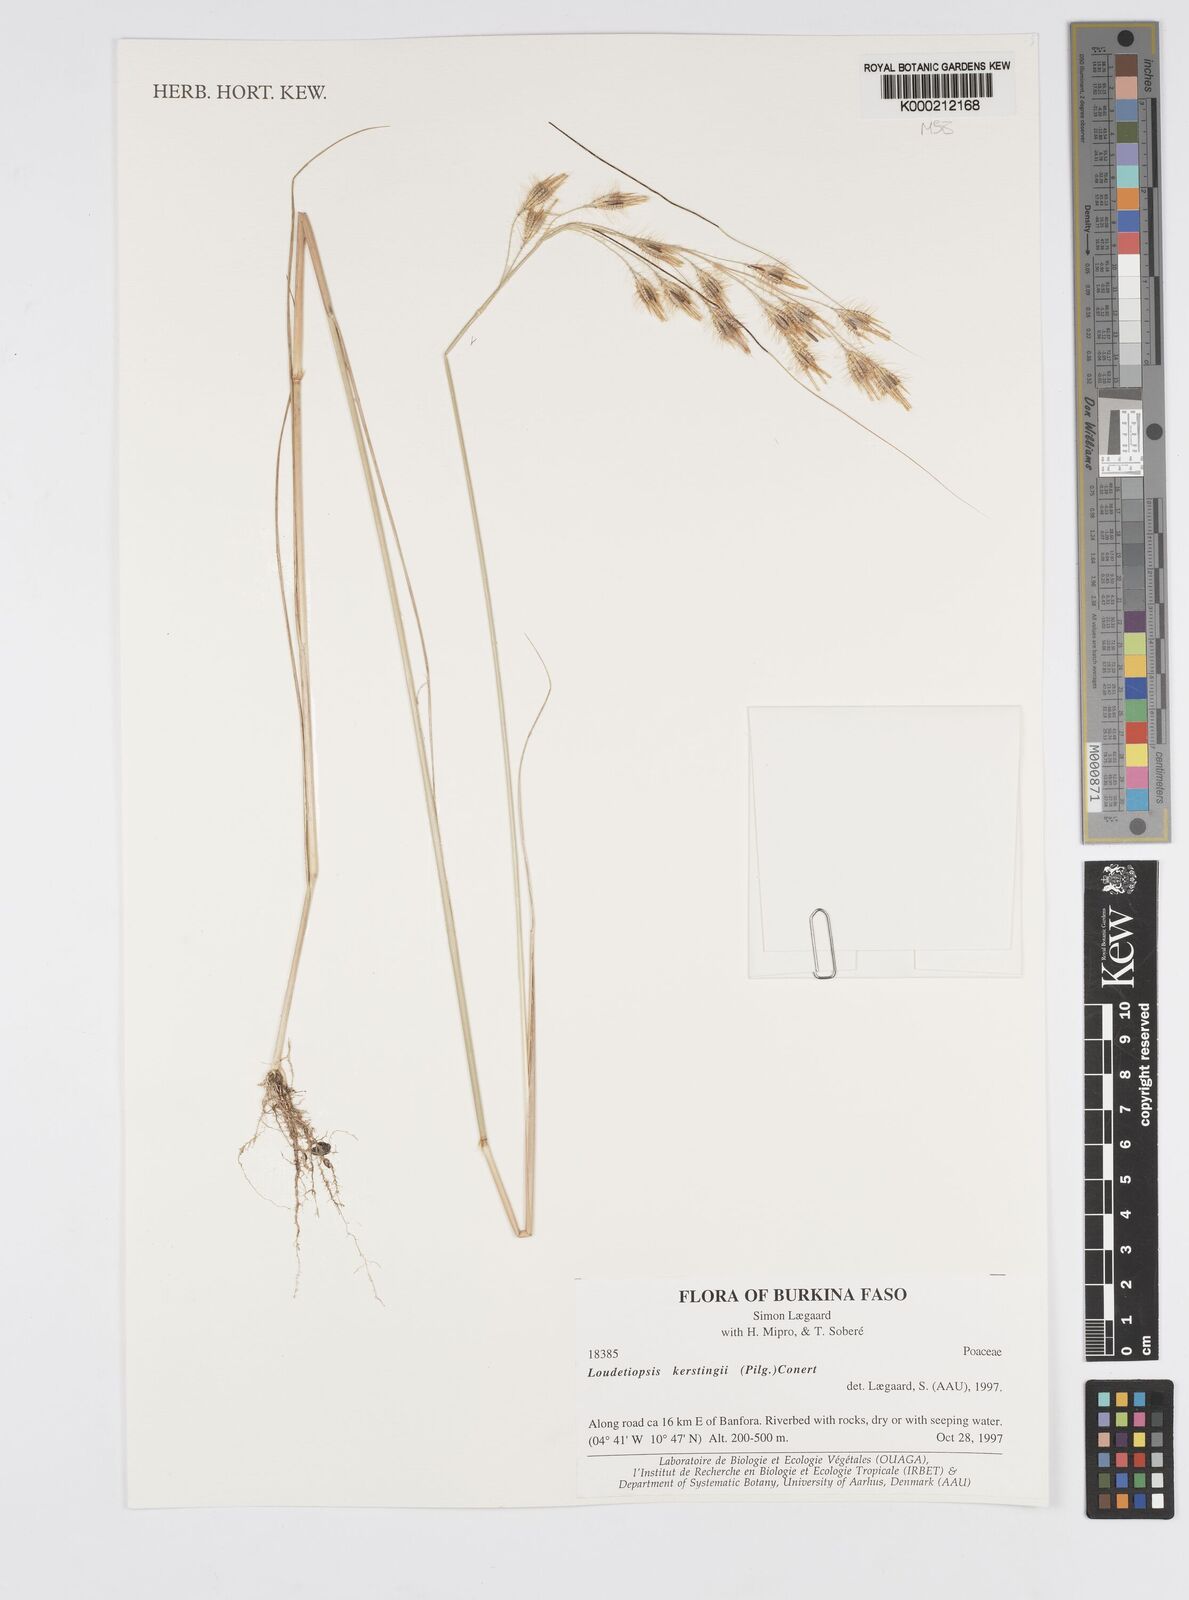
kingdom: Plantae
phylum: Tracheophyta
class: Liliopsida
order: Poales
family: Poaceae
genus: Loudetiopsis
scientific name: Loudetiopsis kerstingii
